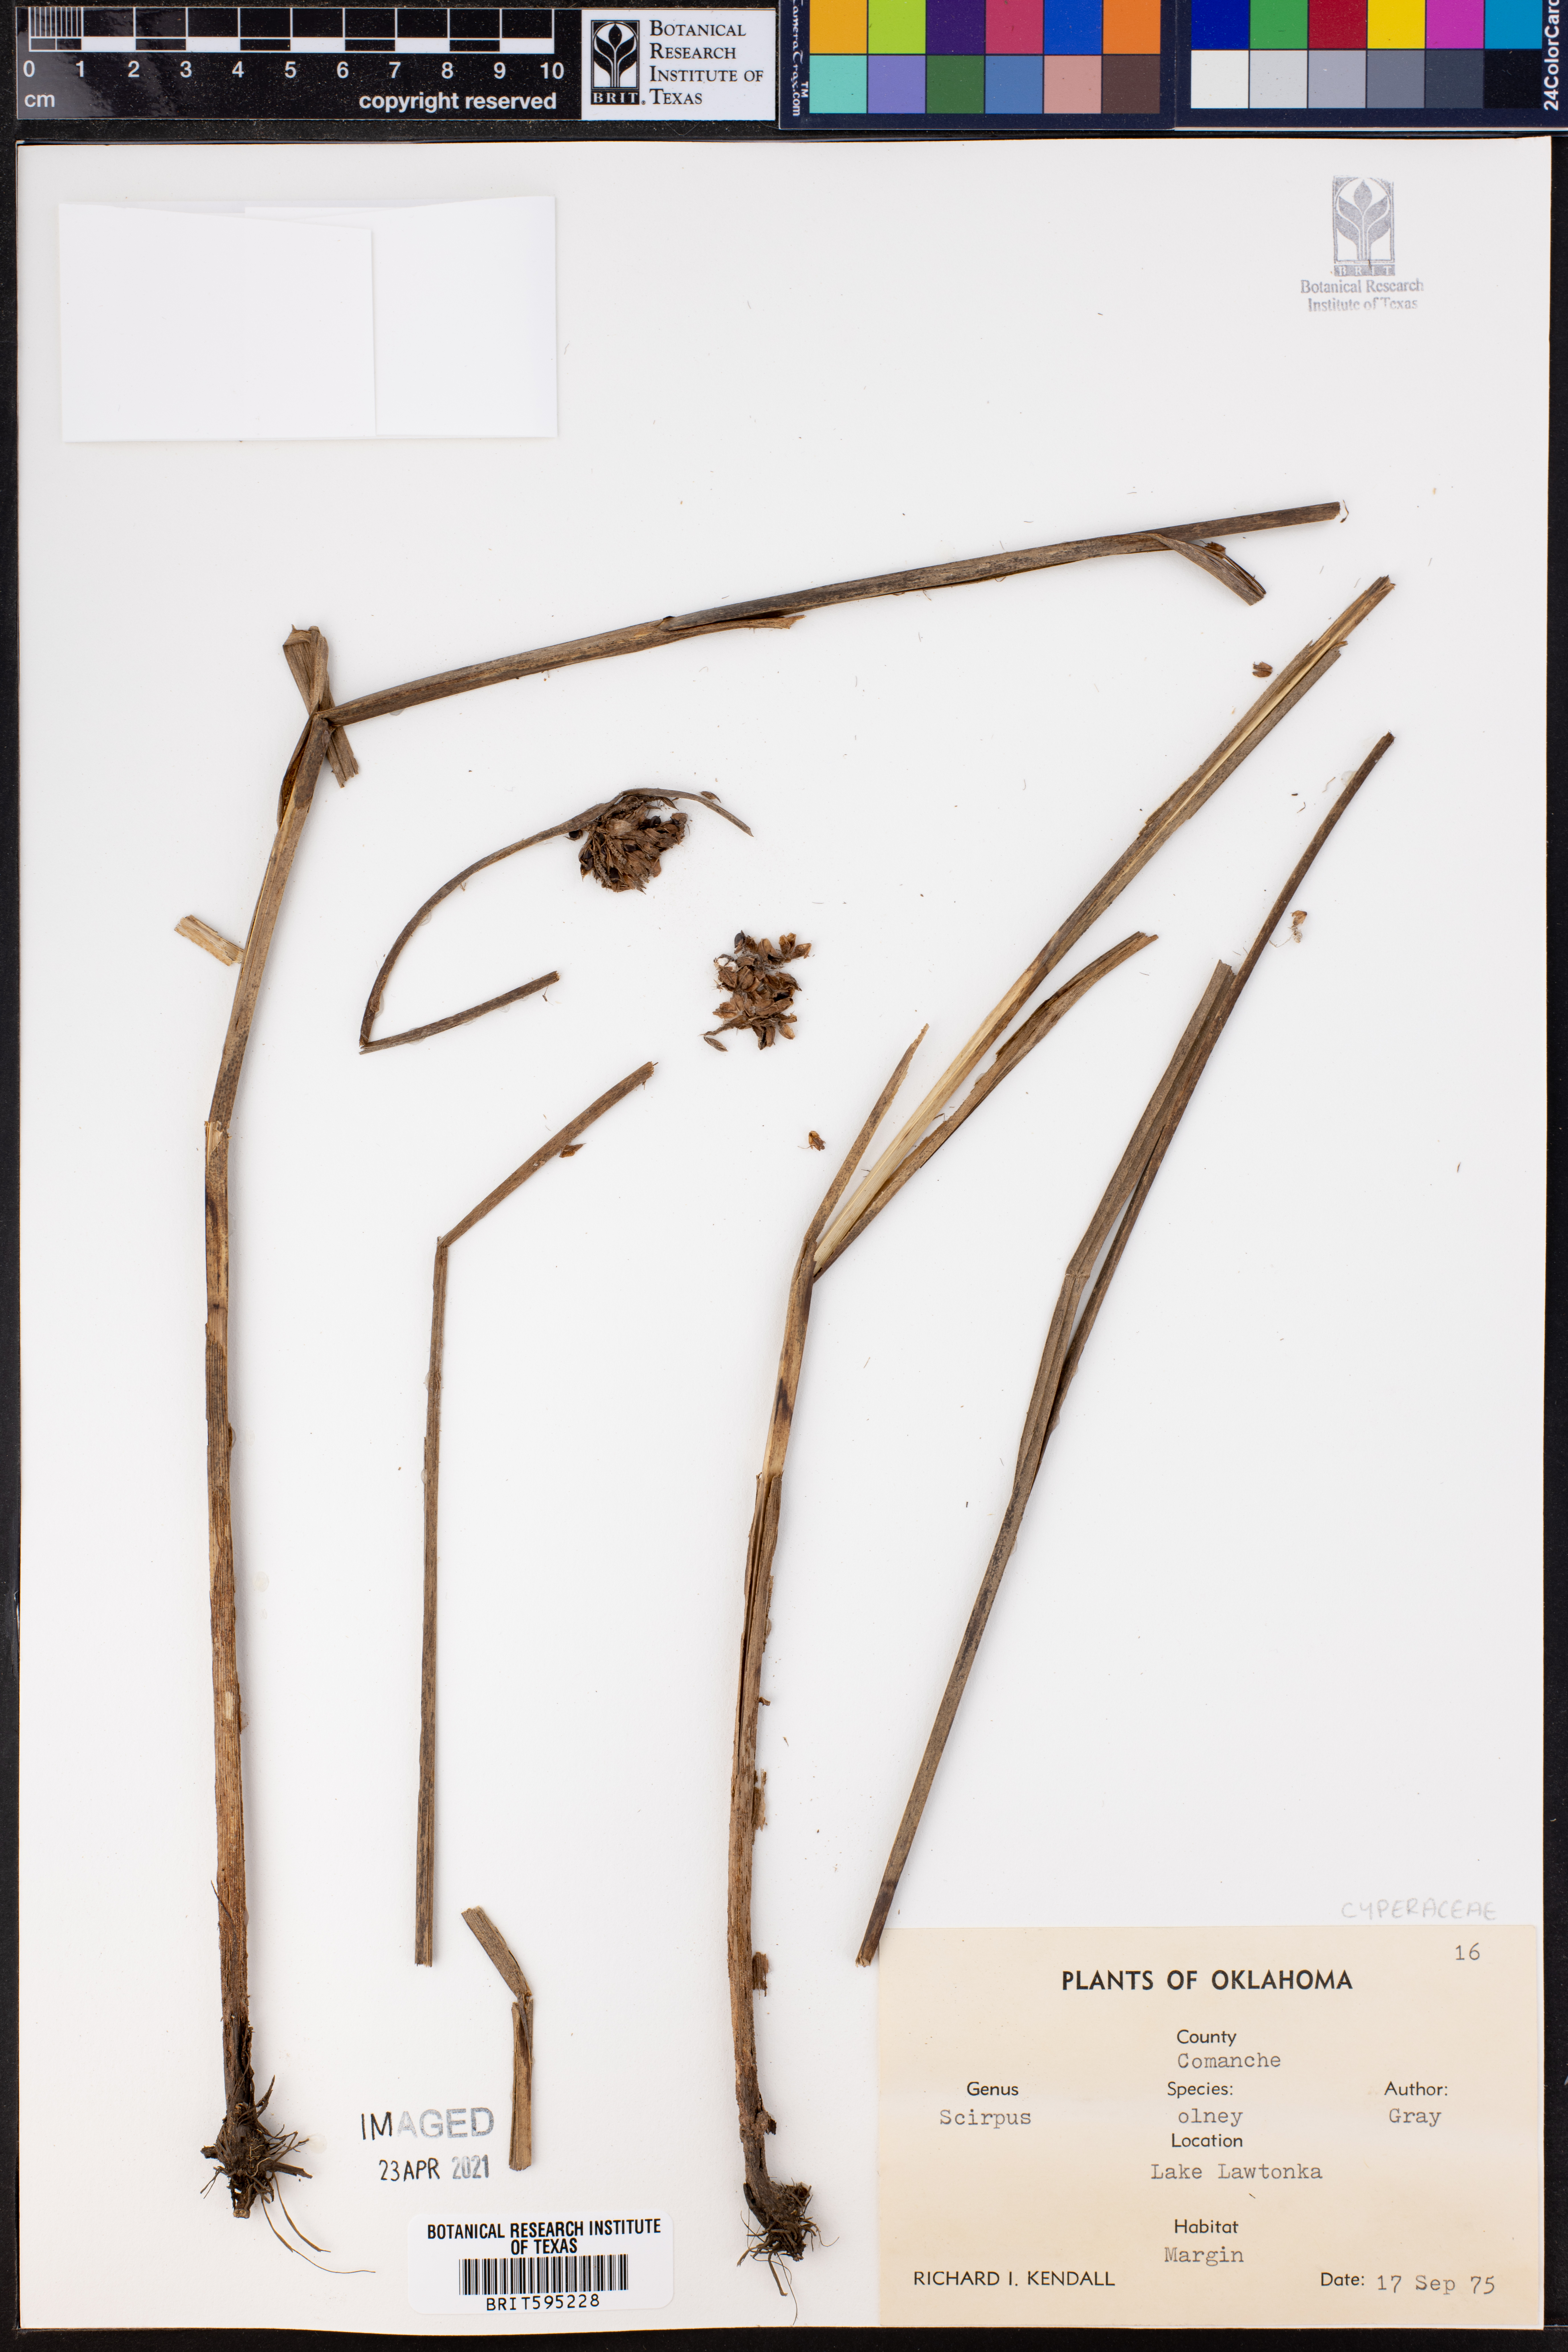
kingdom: Plantae
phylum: Tracheophyta
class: Liliopsida
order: Poales
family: Cyperaceae
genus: Schoenoplectus
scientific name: Schoenoplectus americanus
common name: American three-square bulrush
